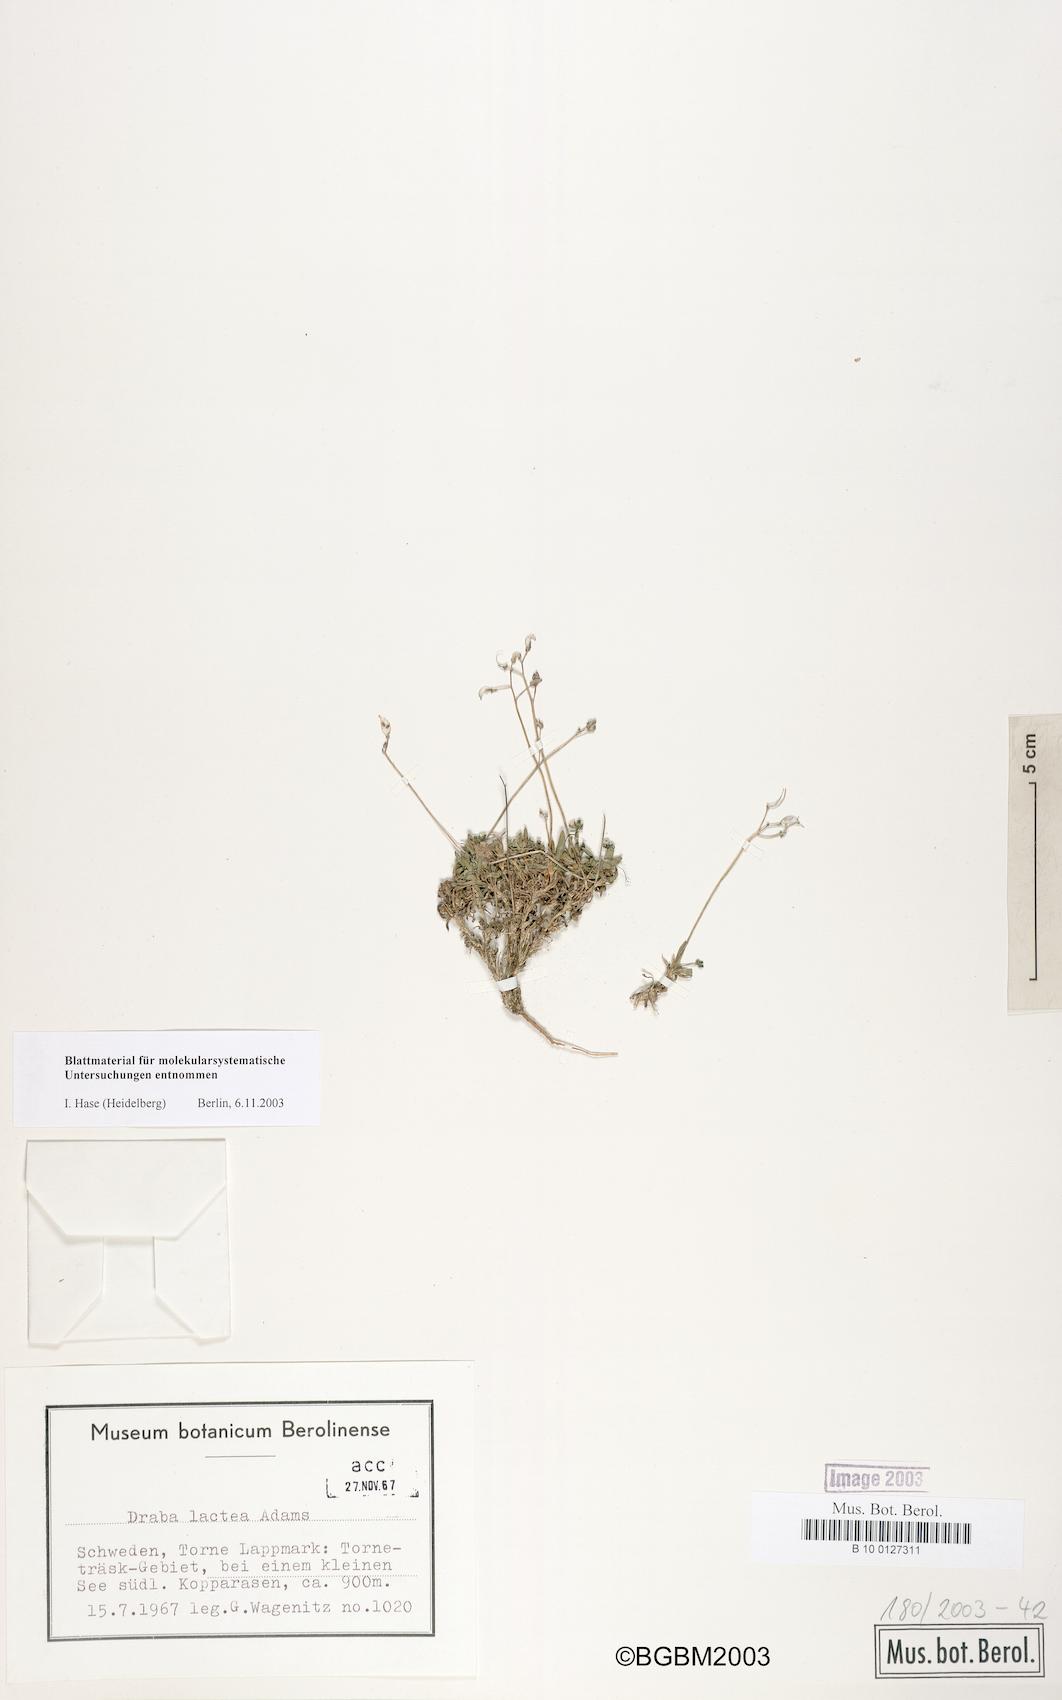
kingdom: Plantae
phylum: Tracheophyta
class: Magnoliopsida
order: Brassicales
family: Brassicaceae
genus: Draba
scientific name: Draba fladnizensis
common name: Austrian draba
